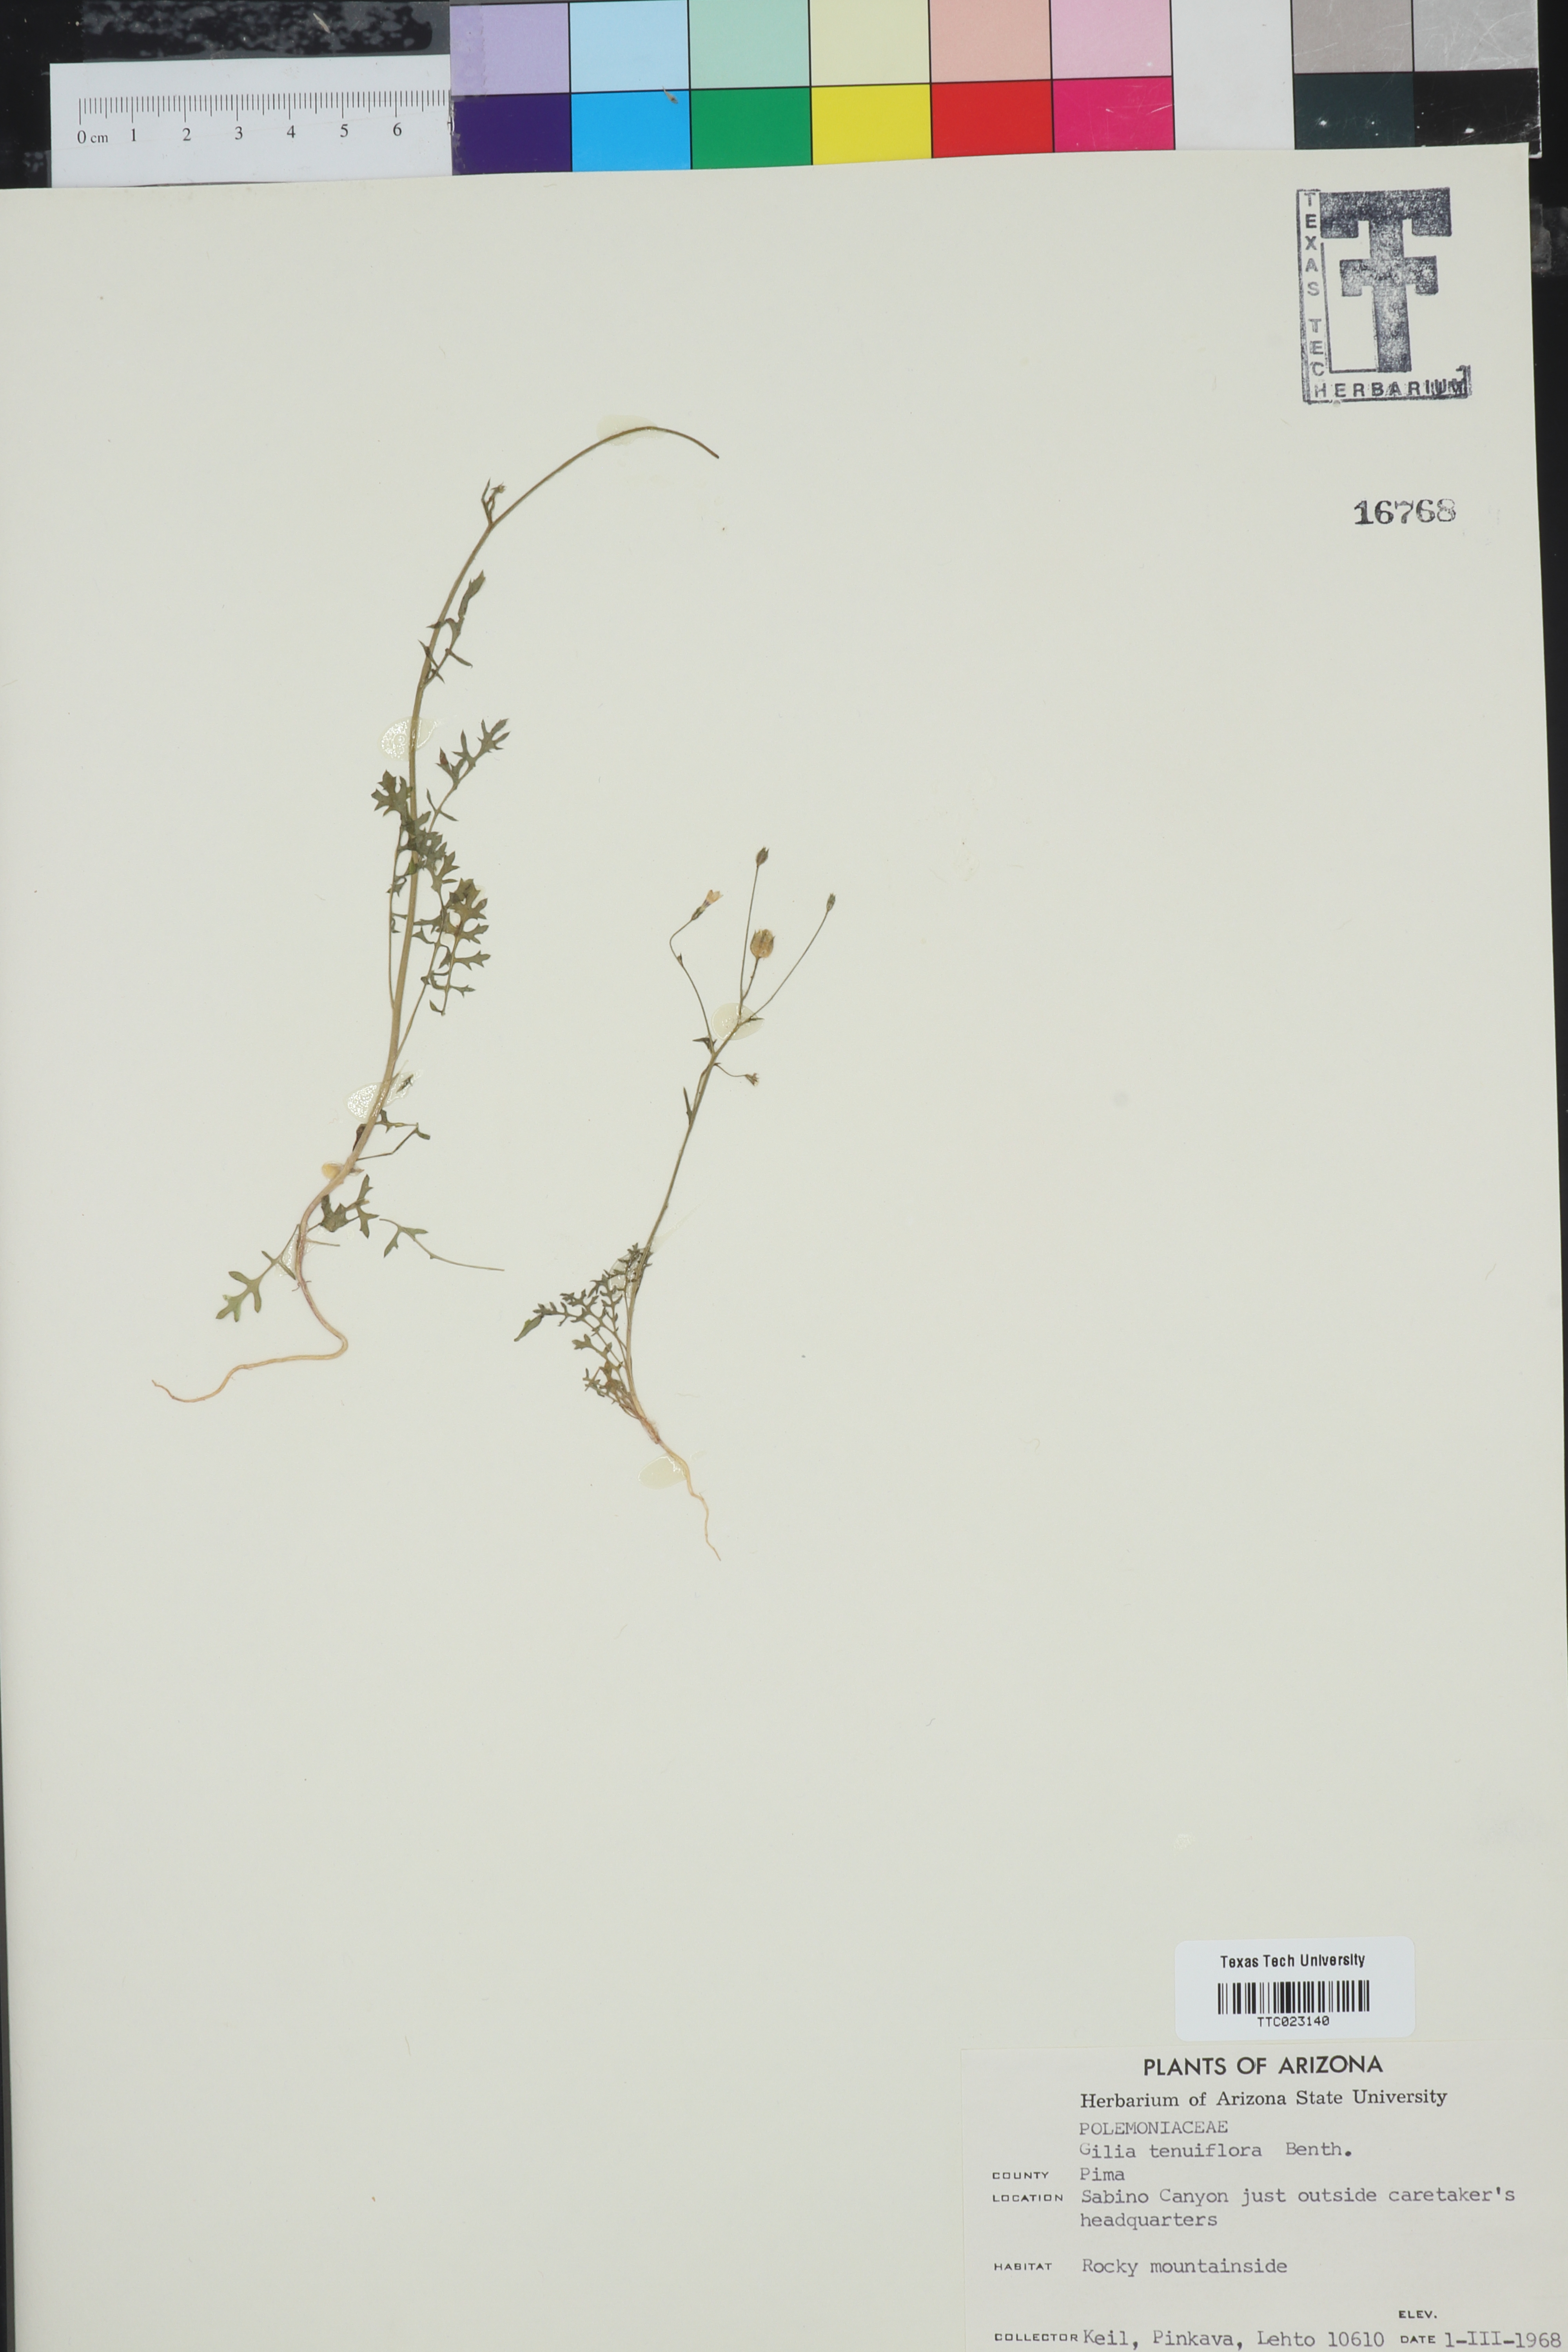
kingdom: Plantae
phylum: Tracheophyta
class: Magnoliopsida
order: Ericales
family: Polemoniaceae
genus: Gilia
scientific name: Gilia tenuiflora
